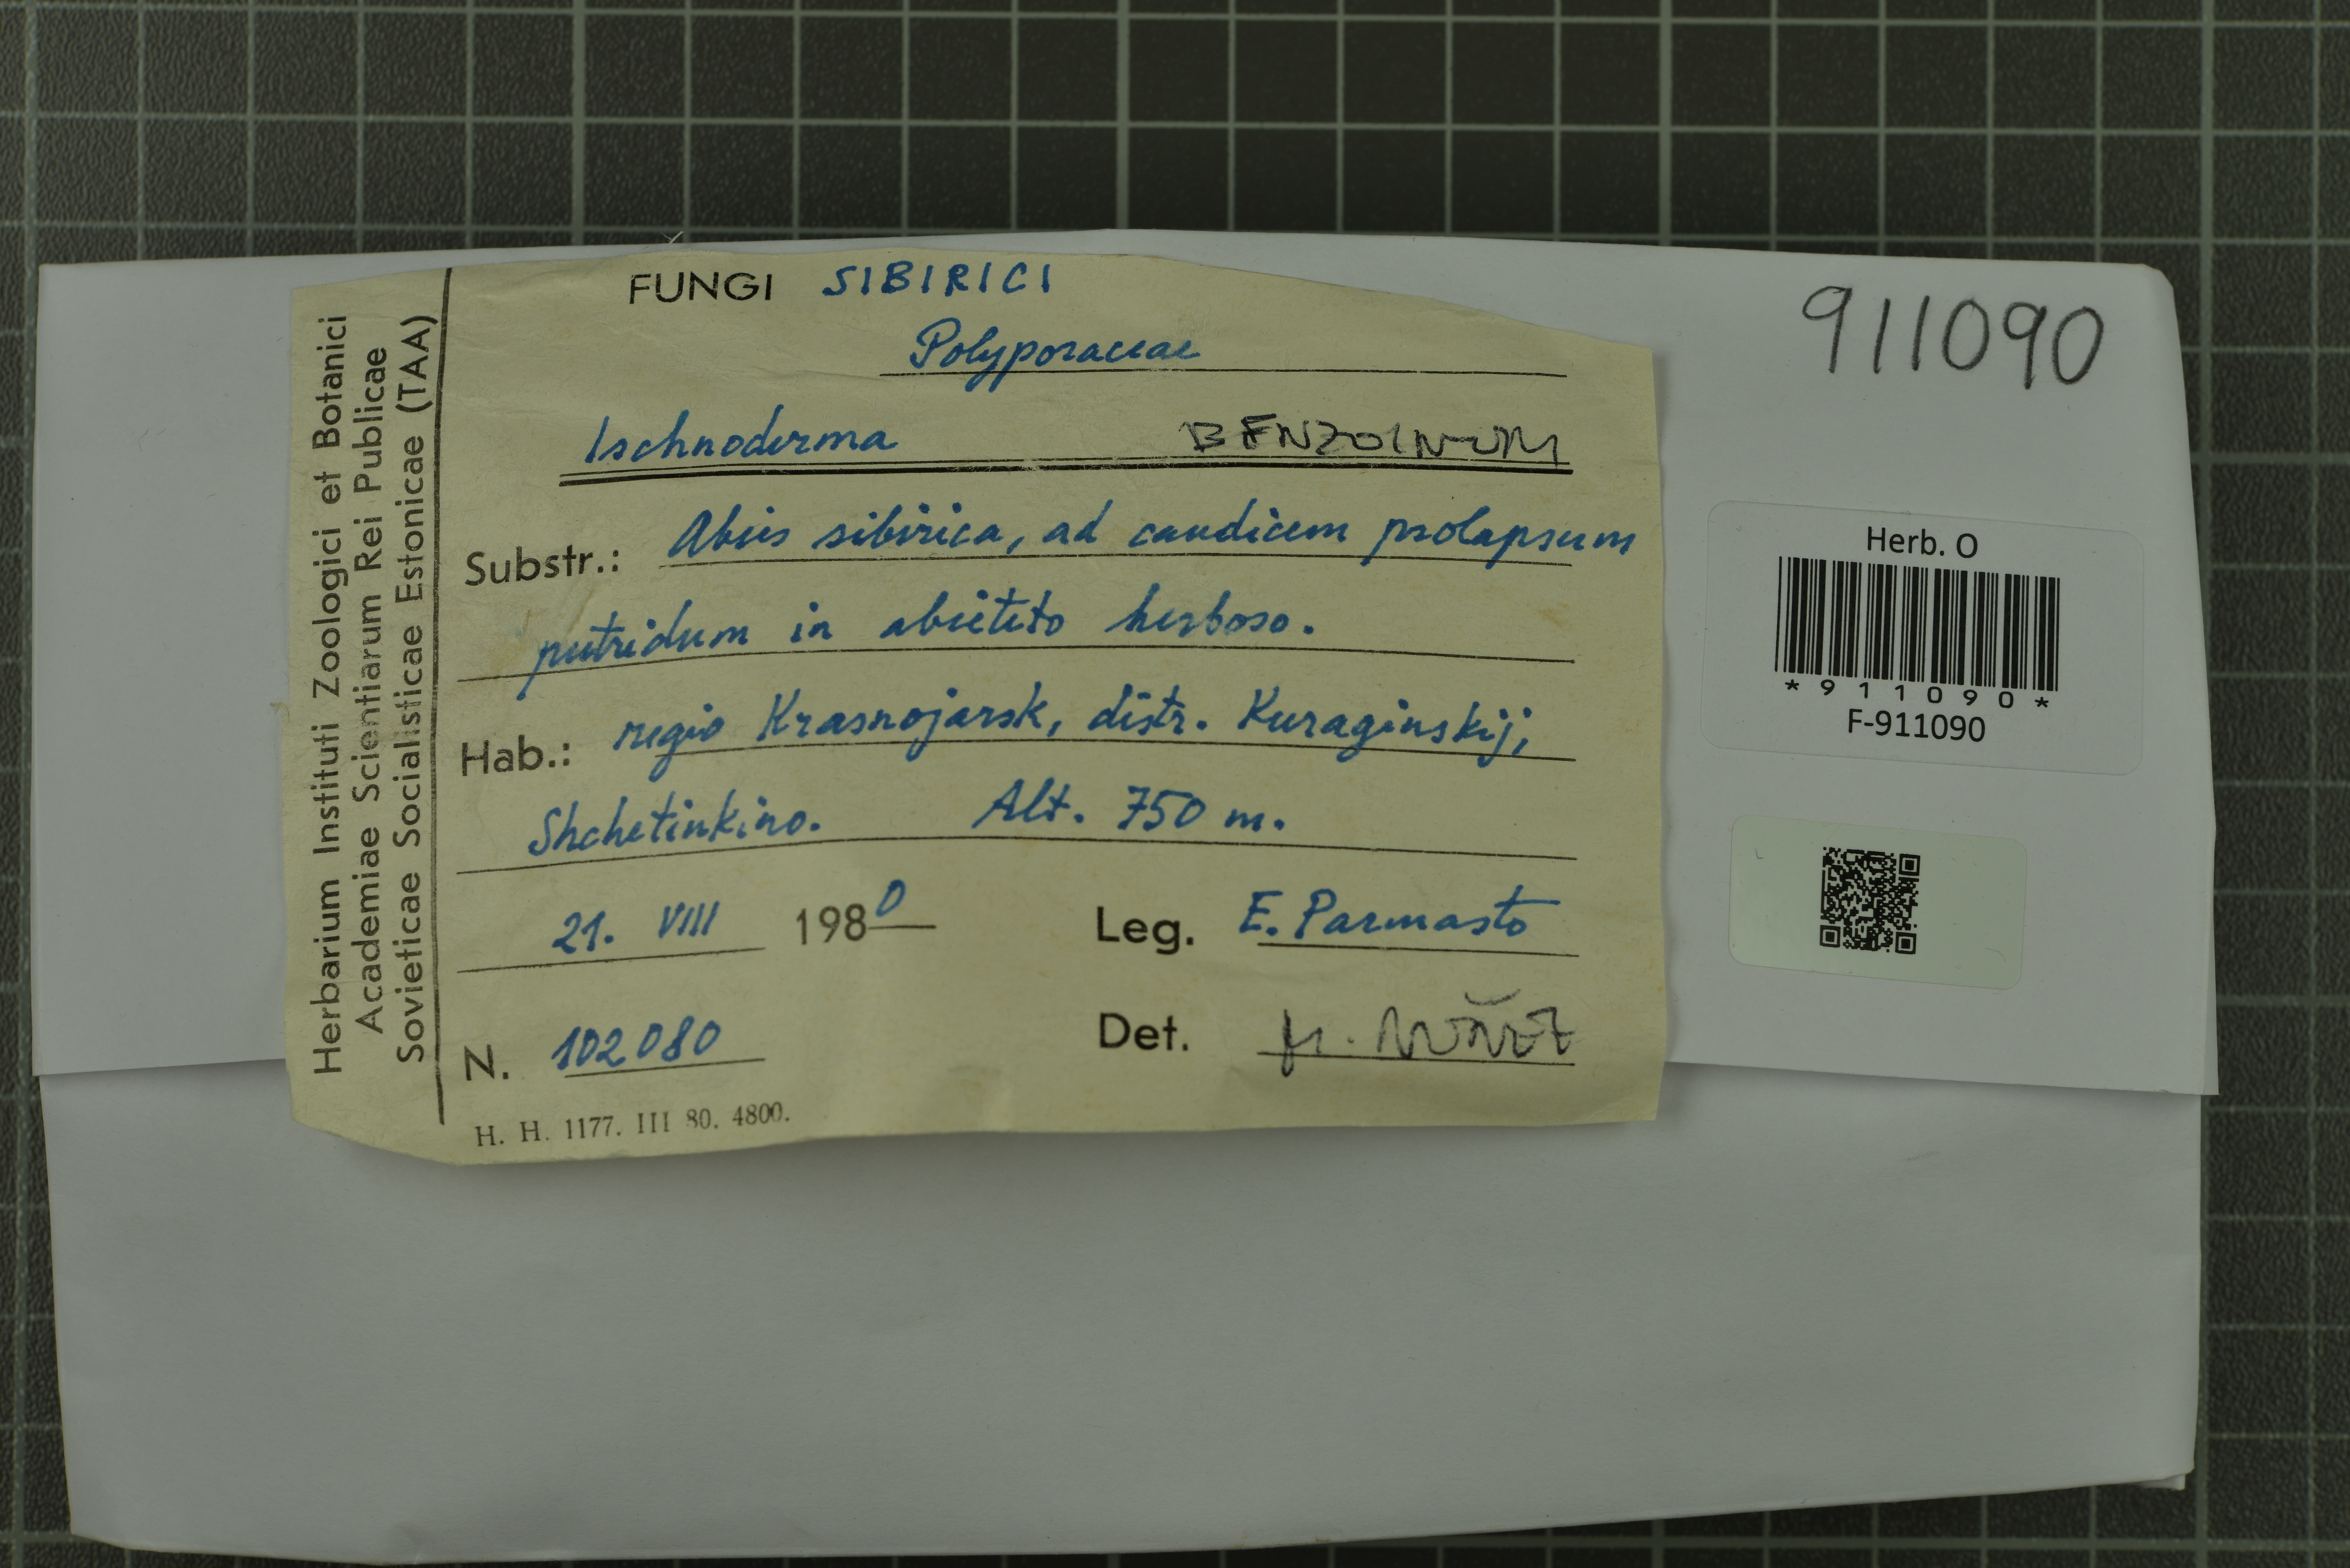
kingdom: Fungi
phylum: Basidiomycota
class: Agaricomycetes
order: Polyporales
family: Ischnodermataceae
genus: Ischnoderma
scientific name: Ischnoderma benzoinum
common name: Benzoin bracket
